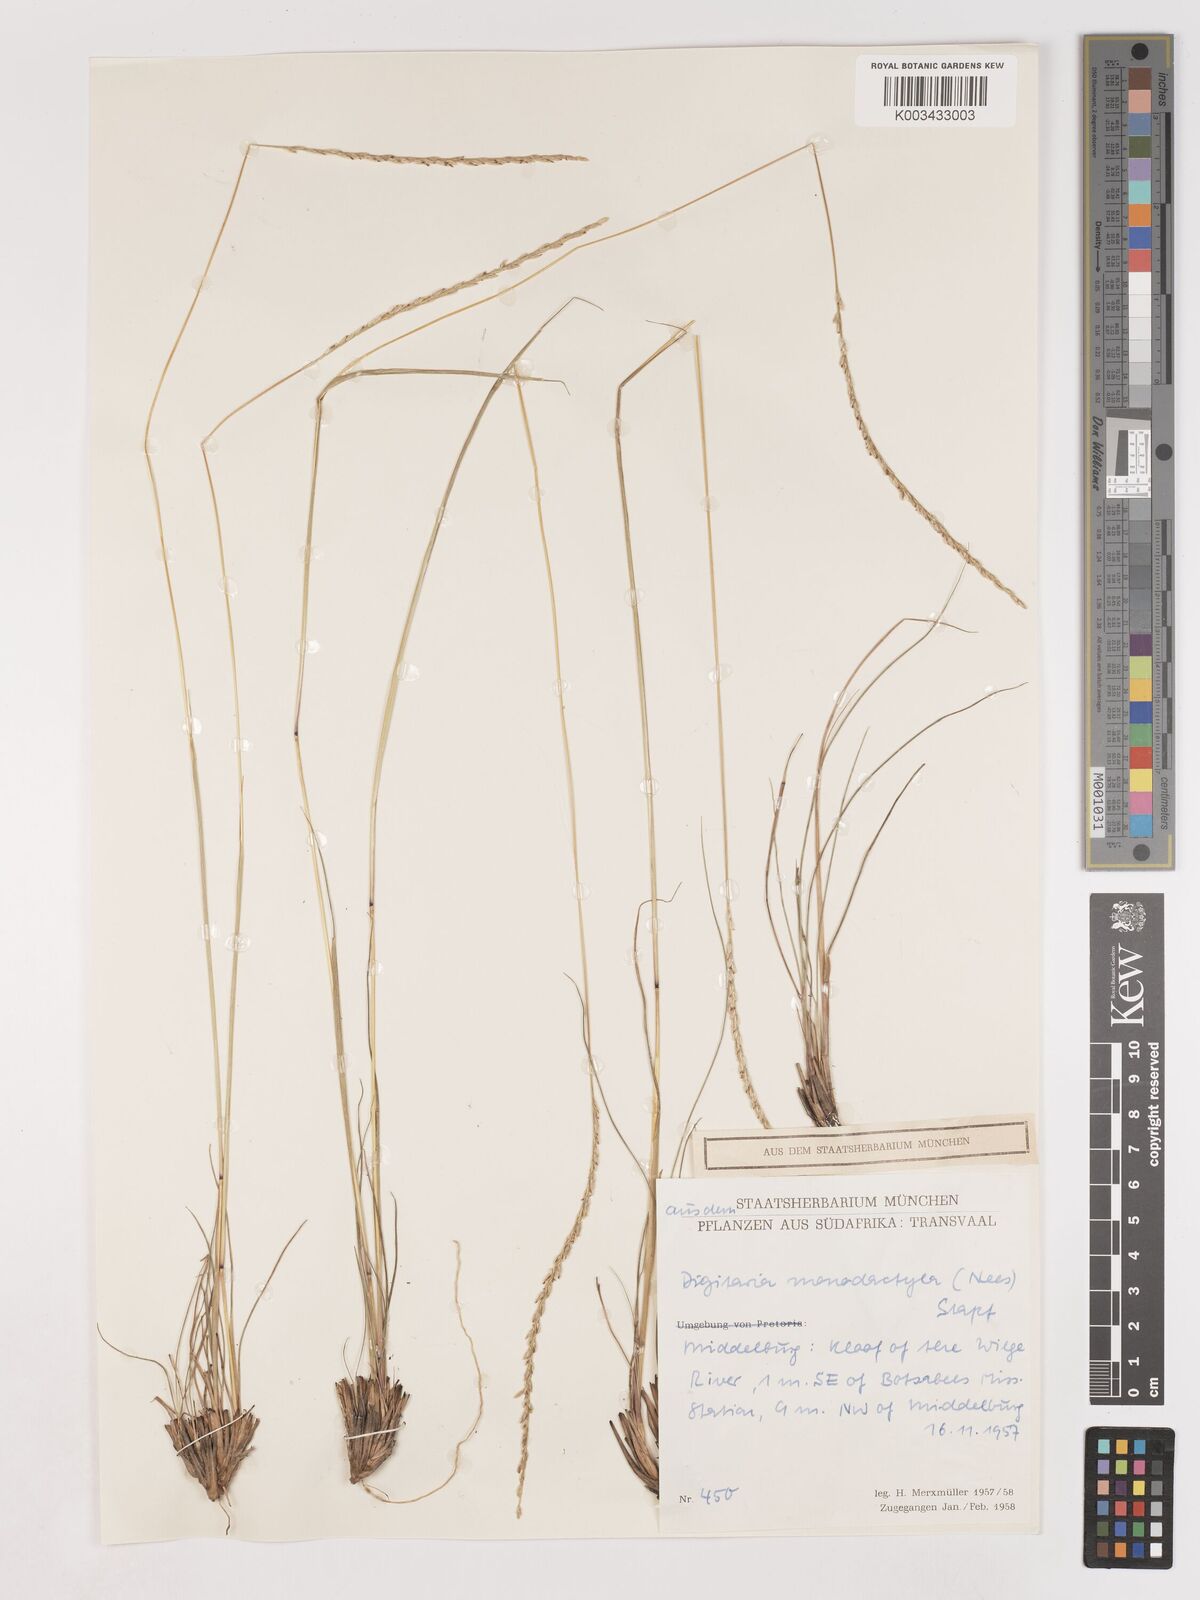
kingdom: Plantae
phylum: Tracheophyta
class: Liliopsida
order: Poales
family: Poaceae
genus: Digitaria
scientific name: Digitaria monodactyla
